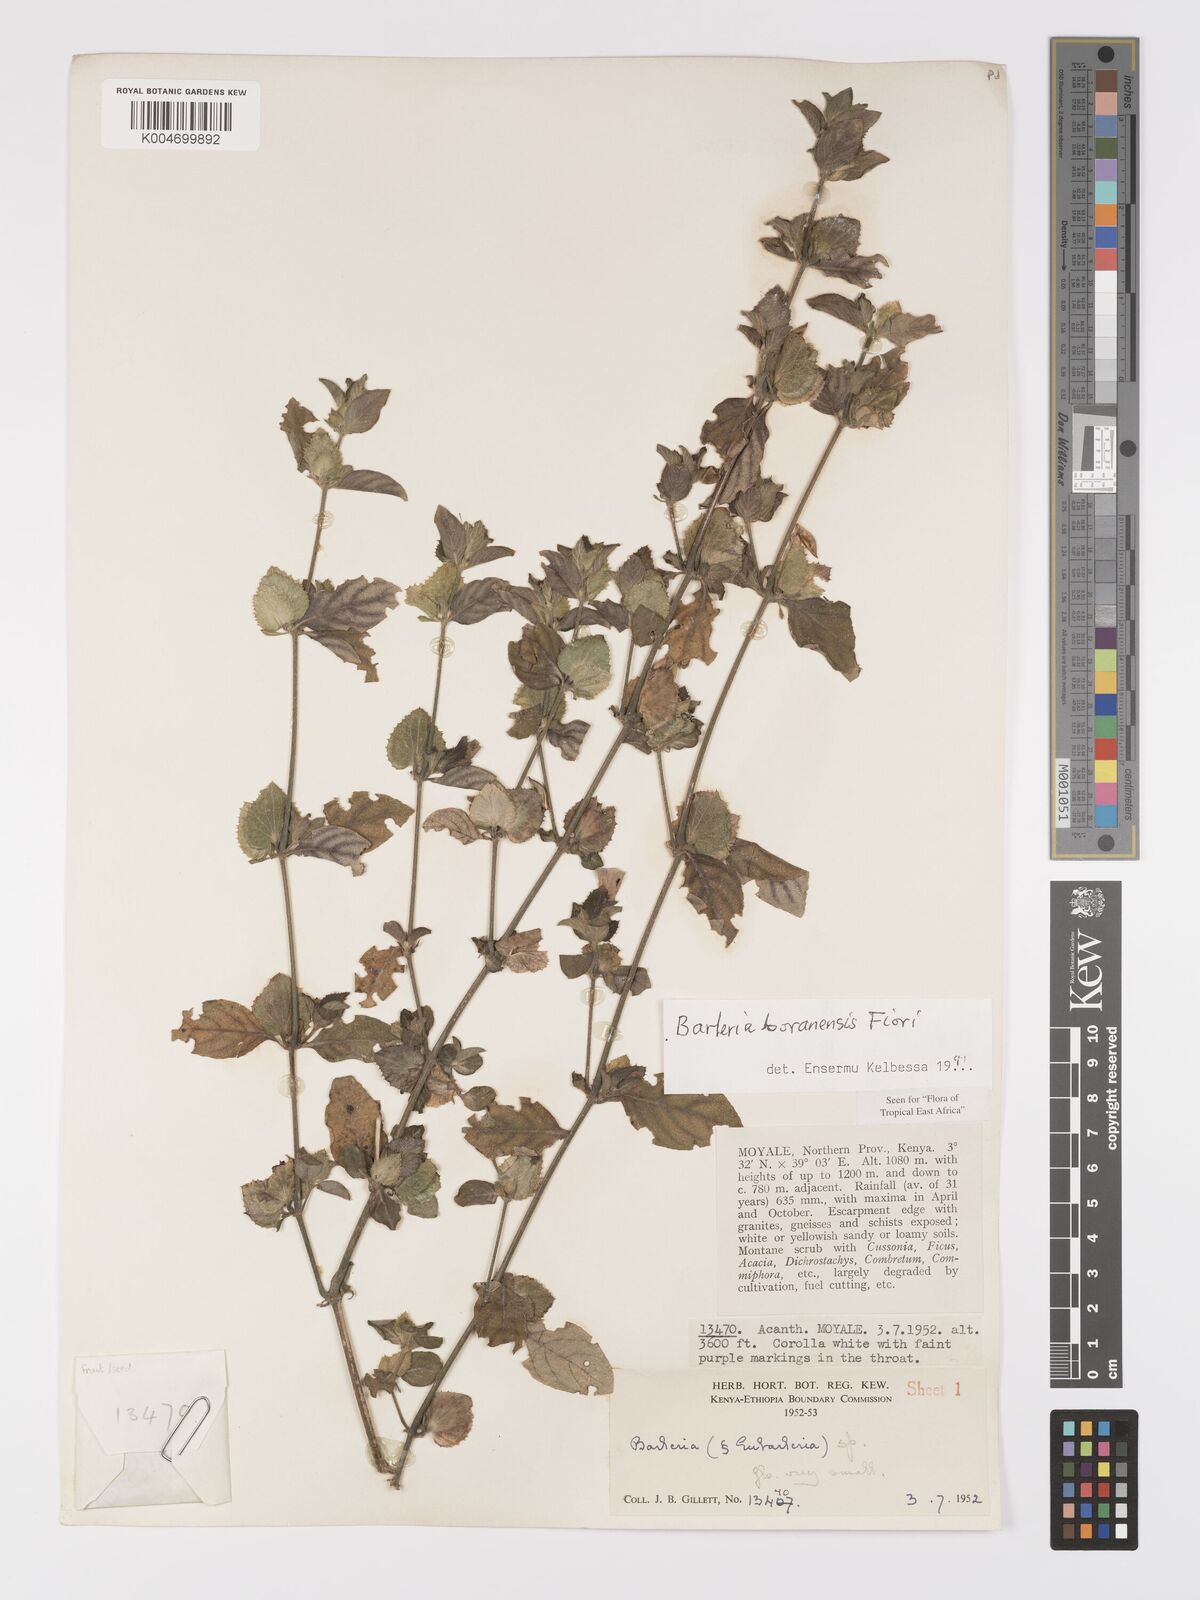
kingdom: Plantae
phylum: Tracheophyta
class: Magnoliopsida
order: Lamiales
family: Acanthaceae
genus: Barleria
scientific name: Barleria boranensis
